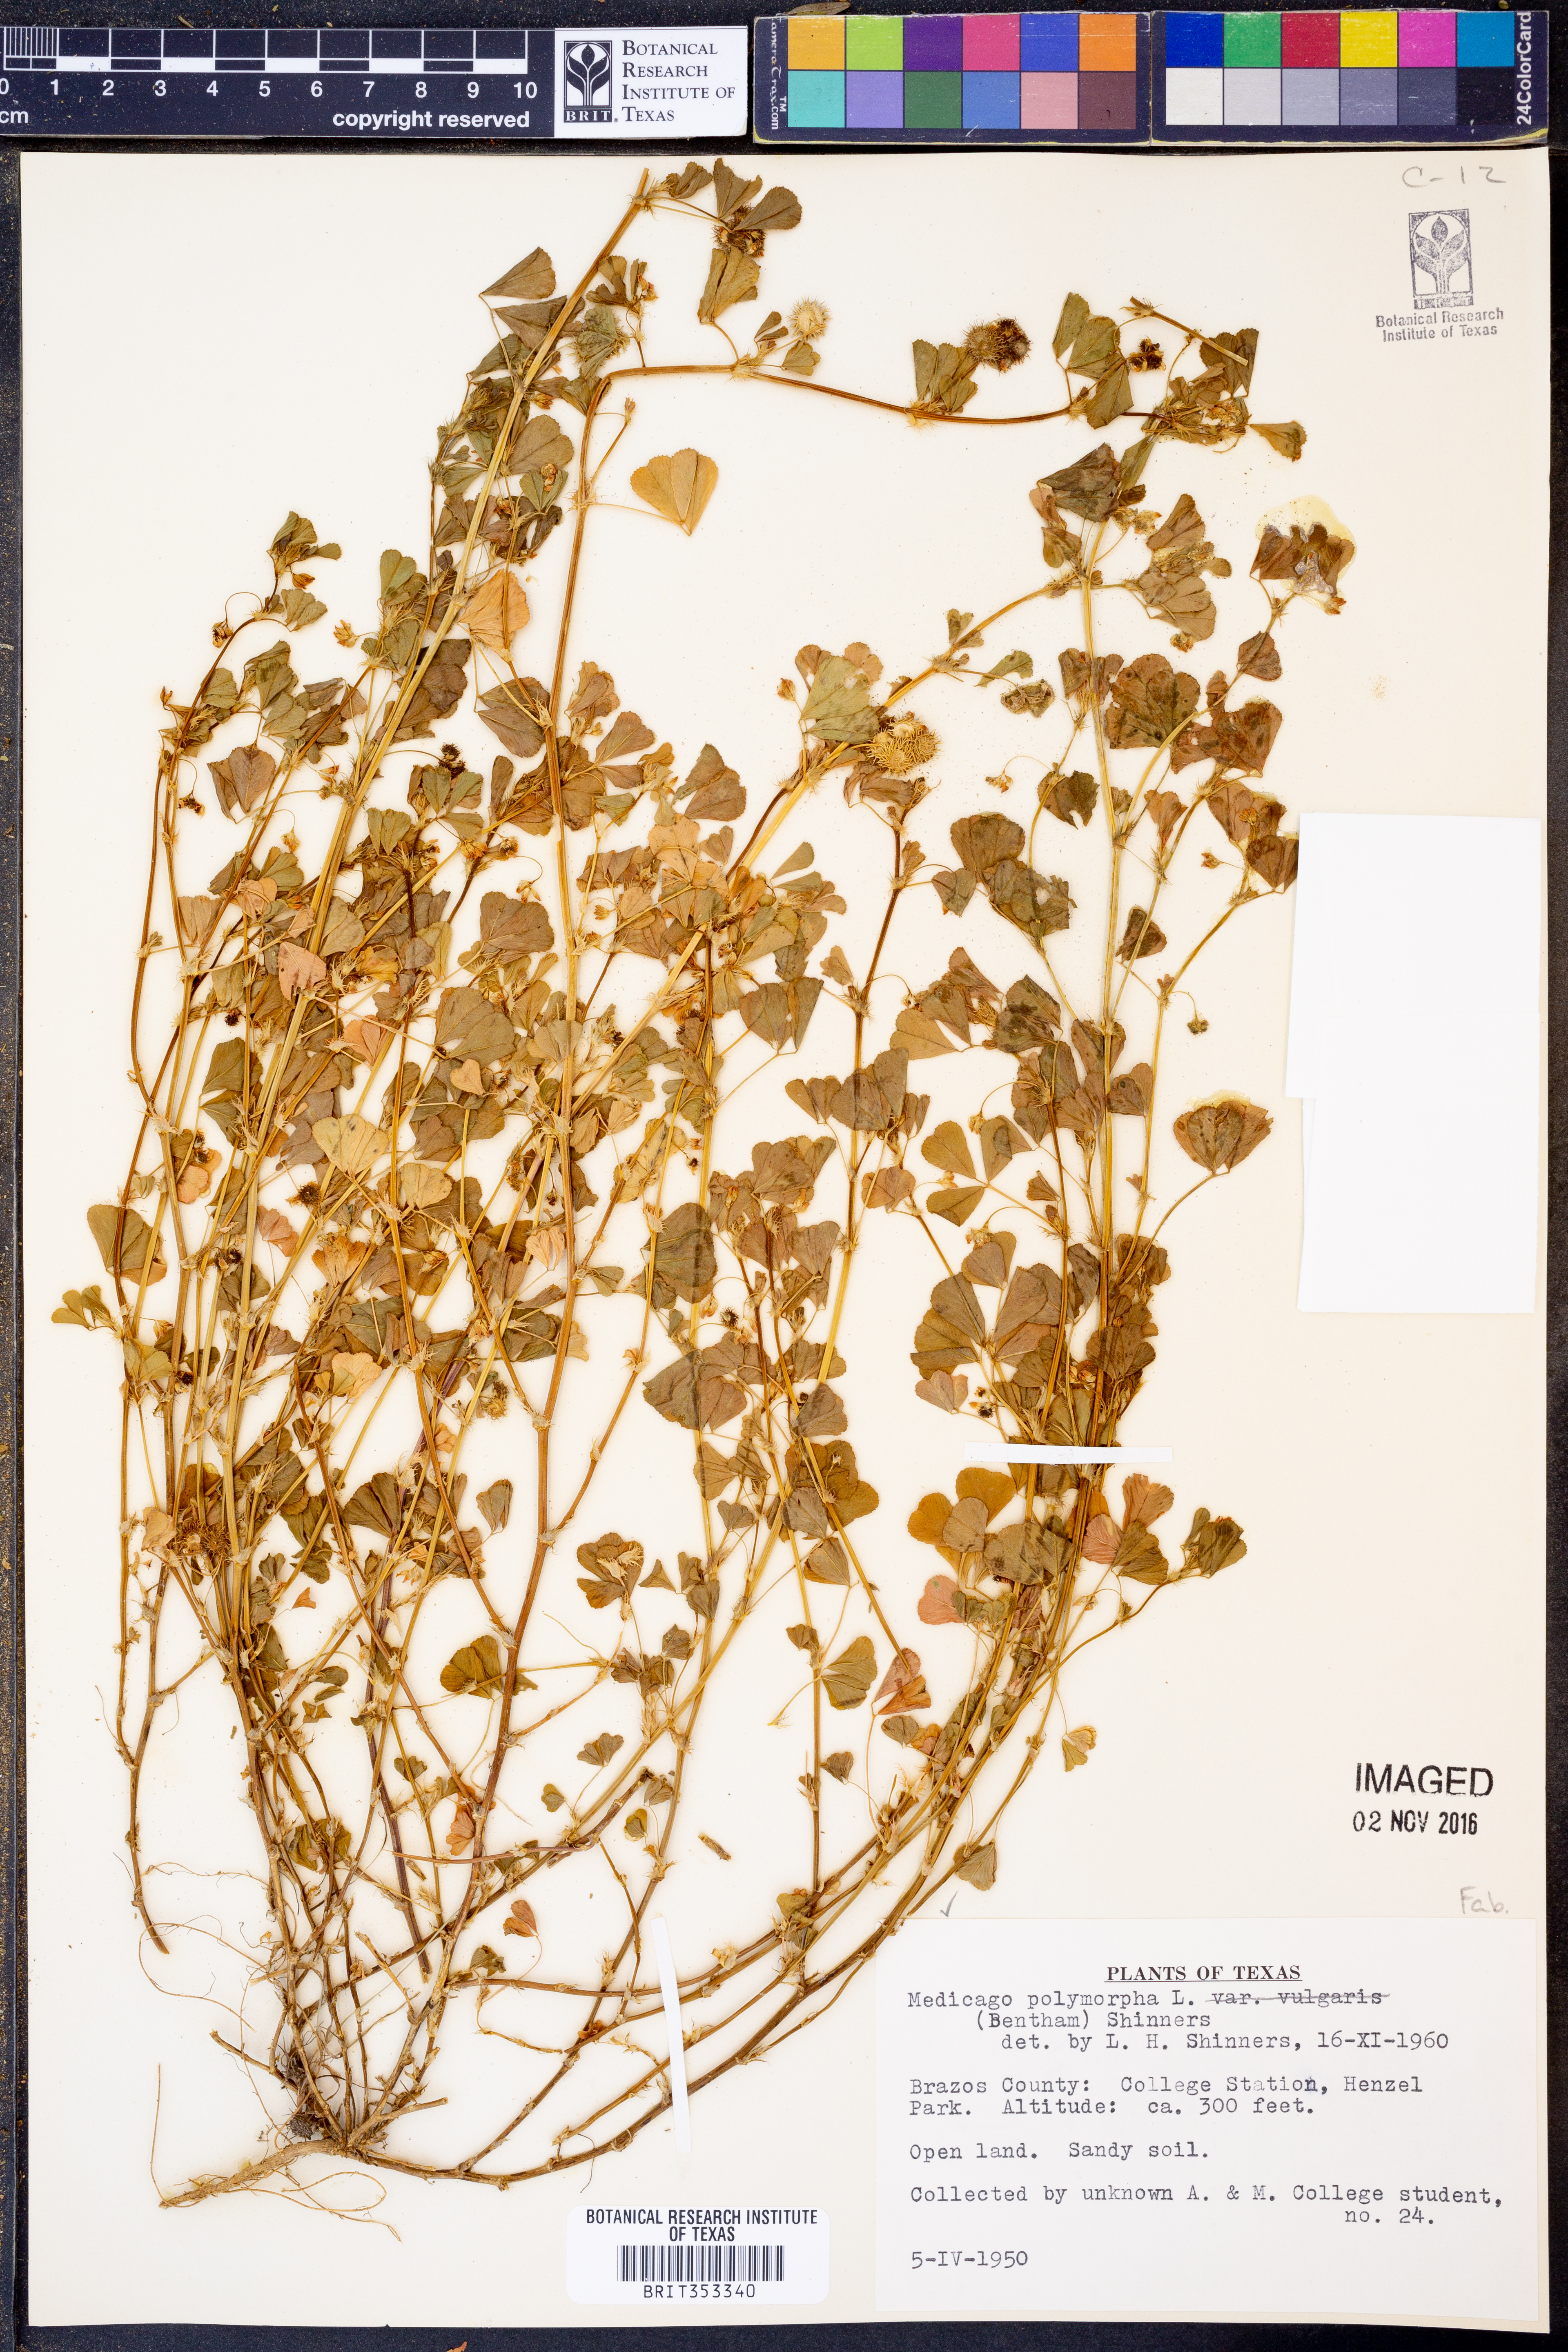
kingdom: Plantae
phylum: Tracheophyta
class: Magnoliopsida
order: Fabales
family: Fabaceae
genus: Medicago
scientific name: Medicago polymorpha
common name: Burclover
